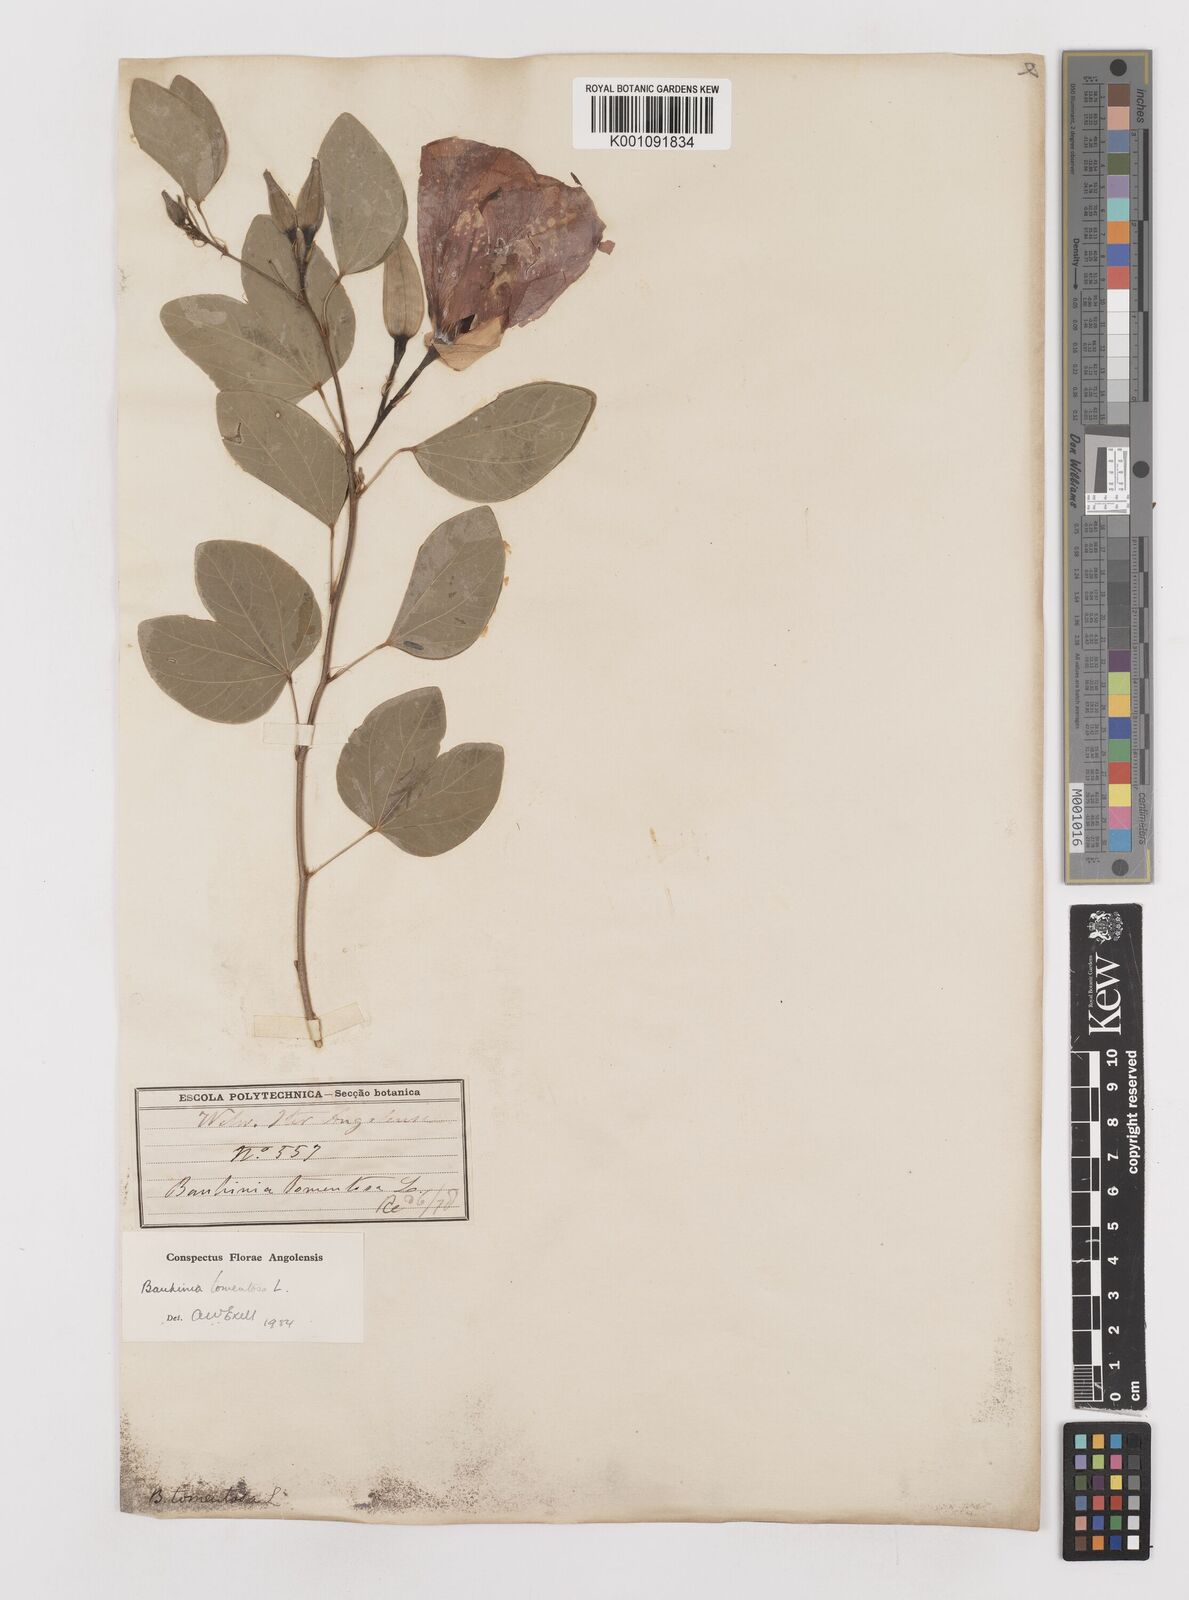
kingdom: Plantae
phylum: Tracheophyta
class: Magnoliopsida
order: Fabales
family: Fabaceae
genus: Bauhinia
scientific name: Bauhinia tomentosa
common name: Bell bauhinia
